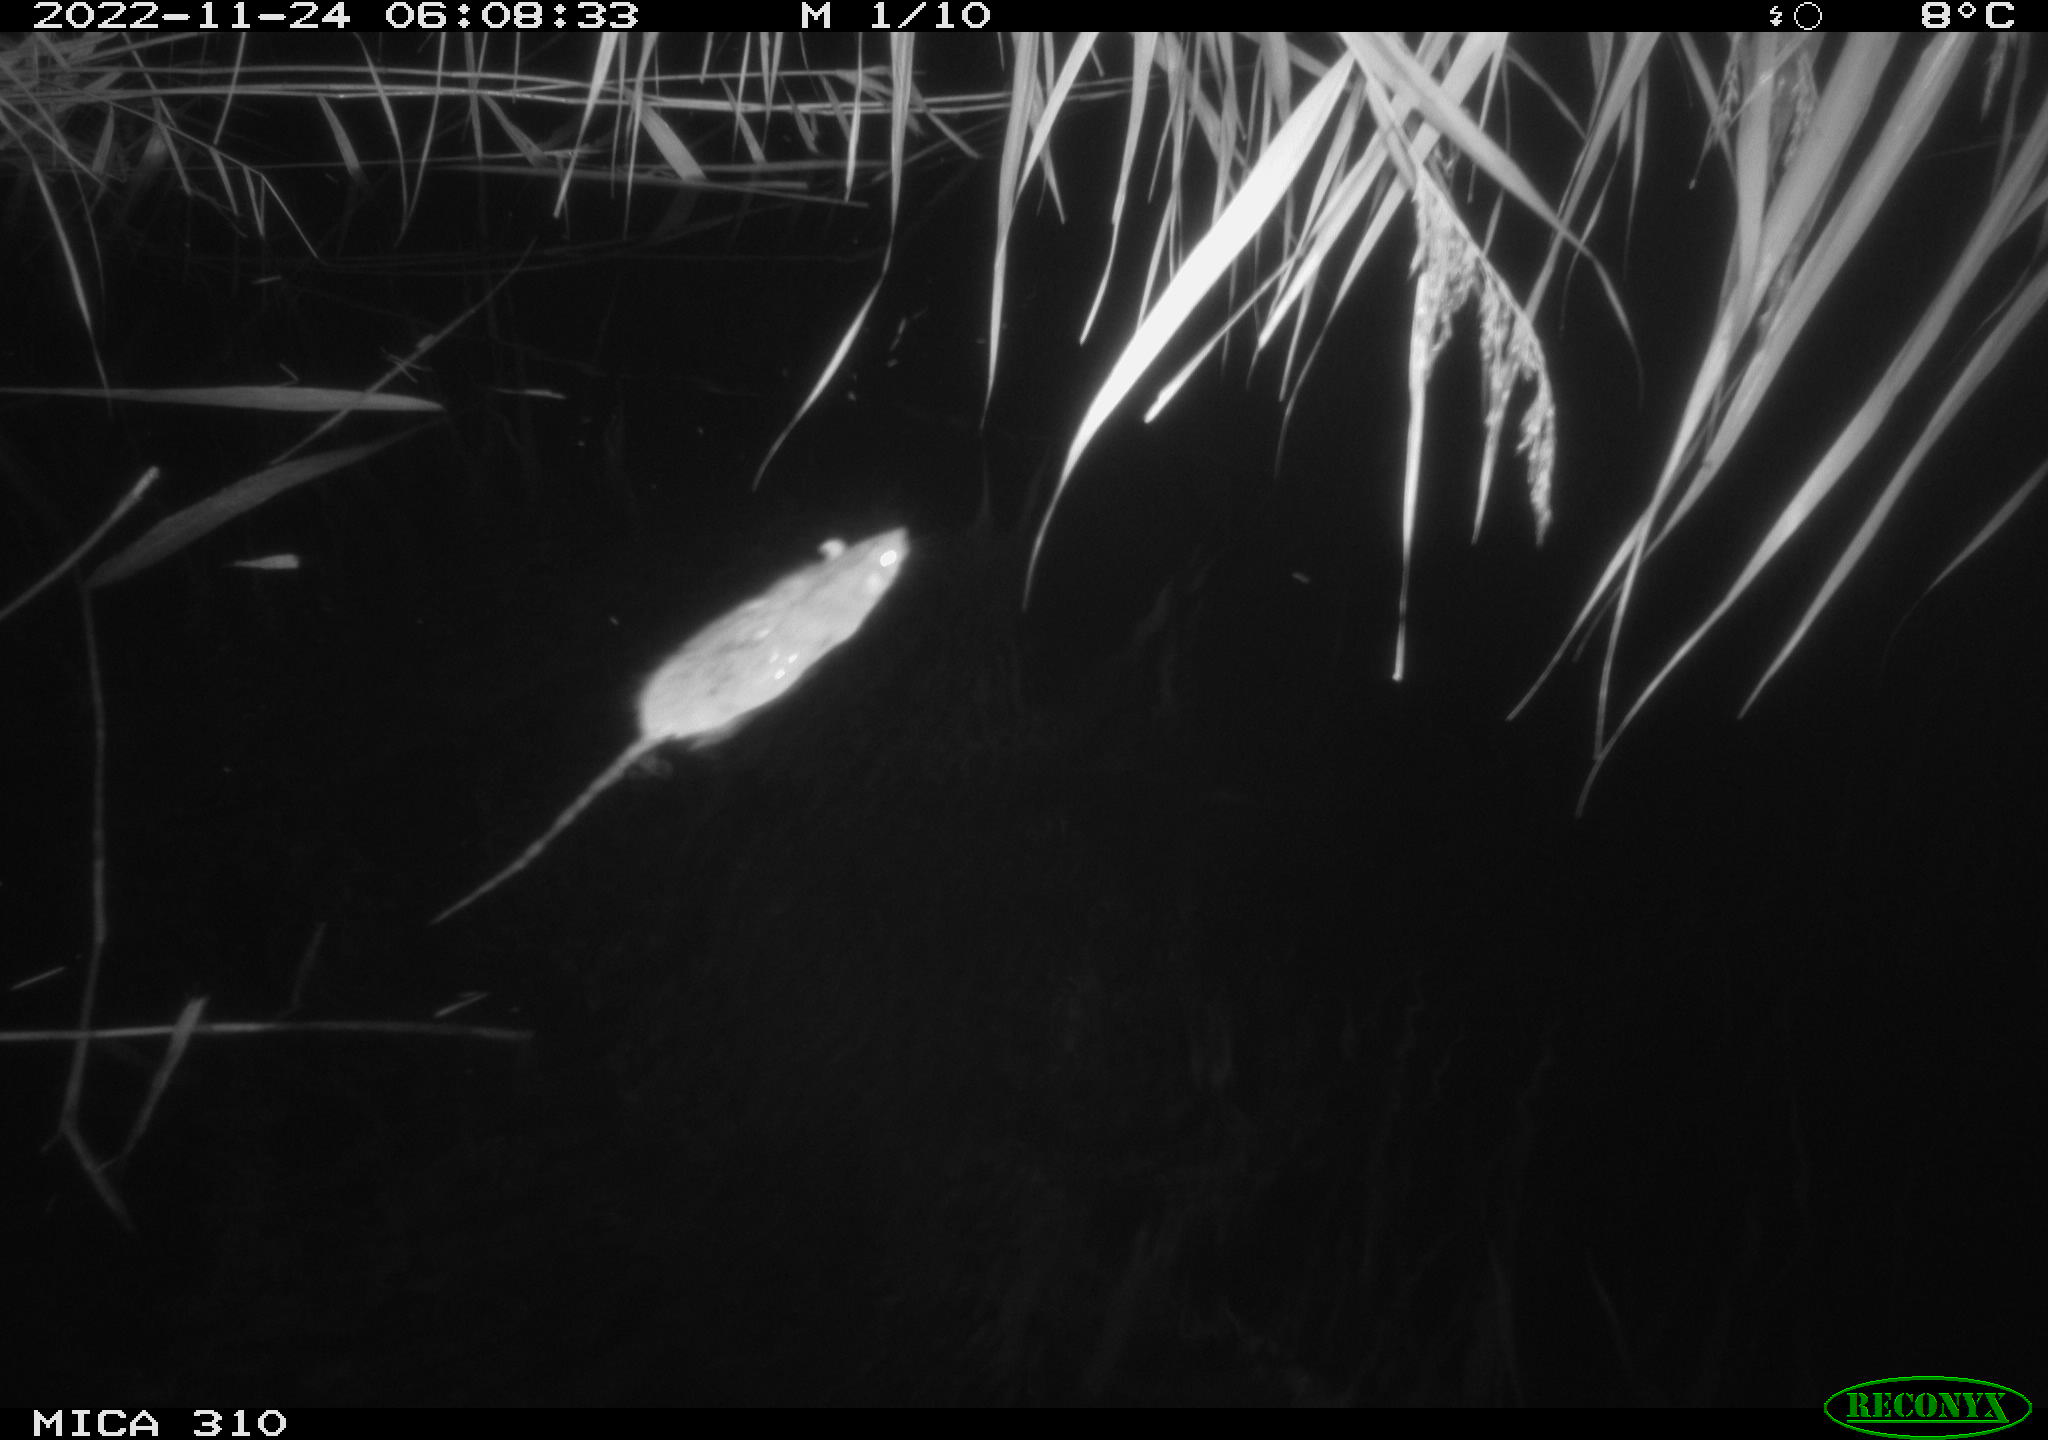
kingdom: Animalia
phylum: Chordata
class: Mammalia
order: Rodentia
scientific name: Rodentia
